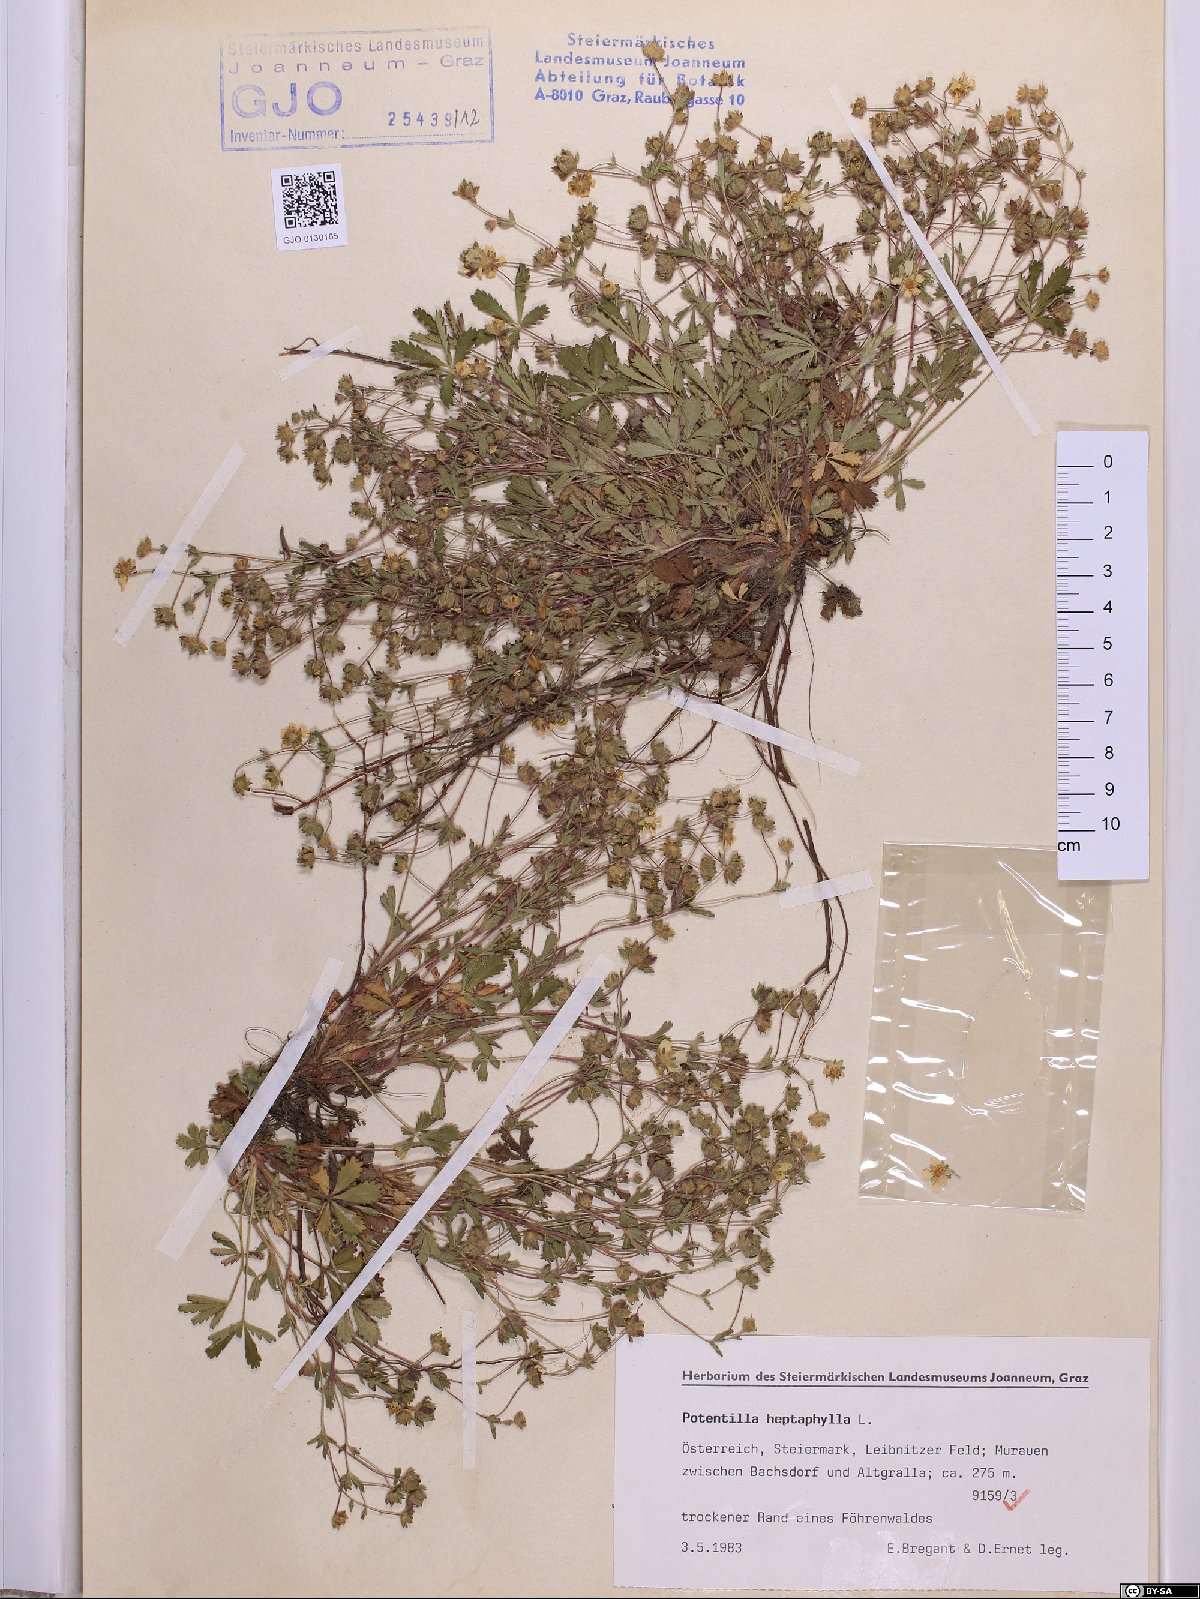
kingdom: Plantae
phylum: Tracheophyta
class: Magnoliopsida
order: Rosales
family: Rosaceae
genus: Potentilla
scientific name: Potentilla heptaphylla
